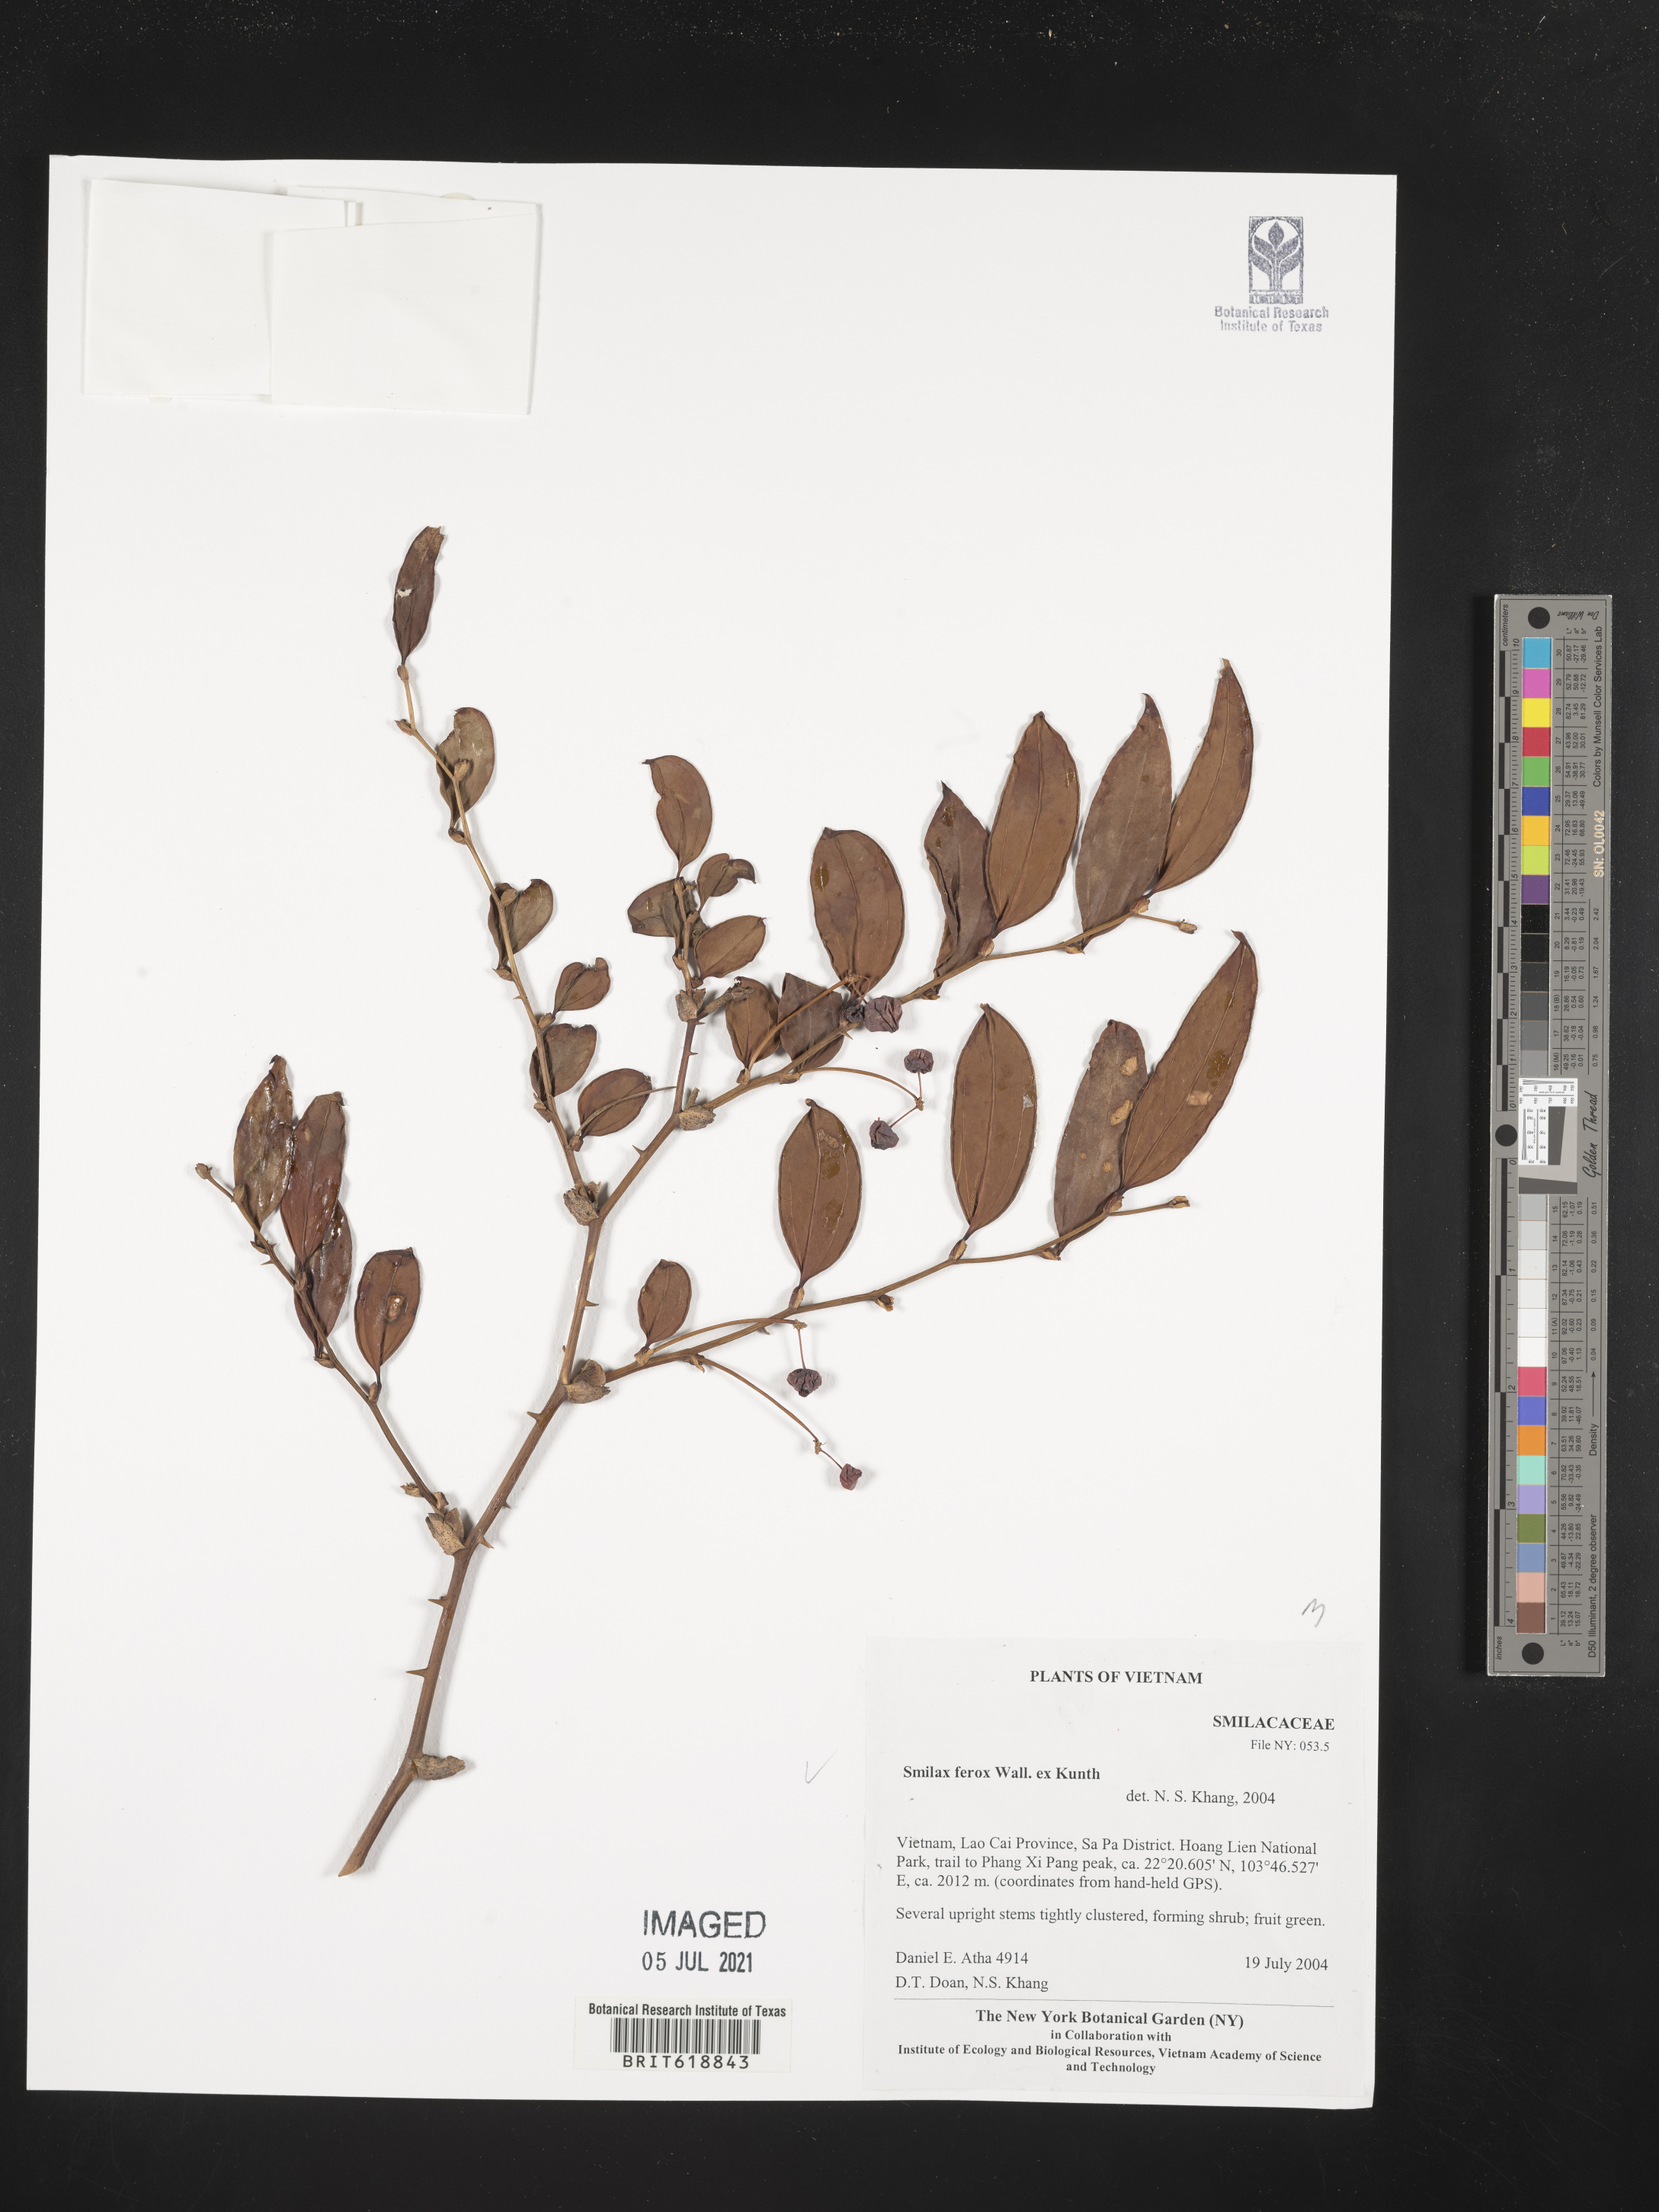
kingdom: Plantae
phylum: Tracheophyta
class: Liliopsida
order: Liliales
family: Smilacaceae
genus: Smilax
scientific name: Smilax ferox
